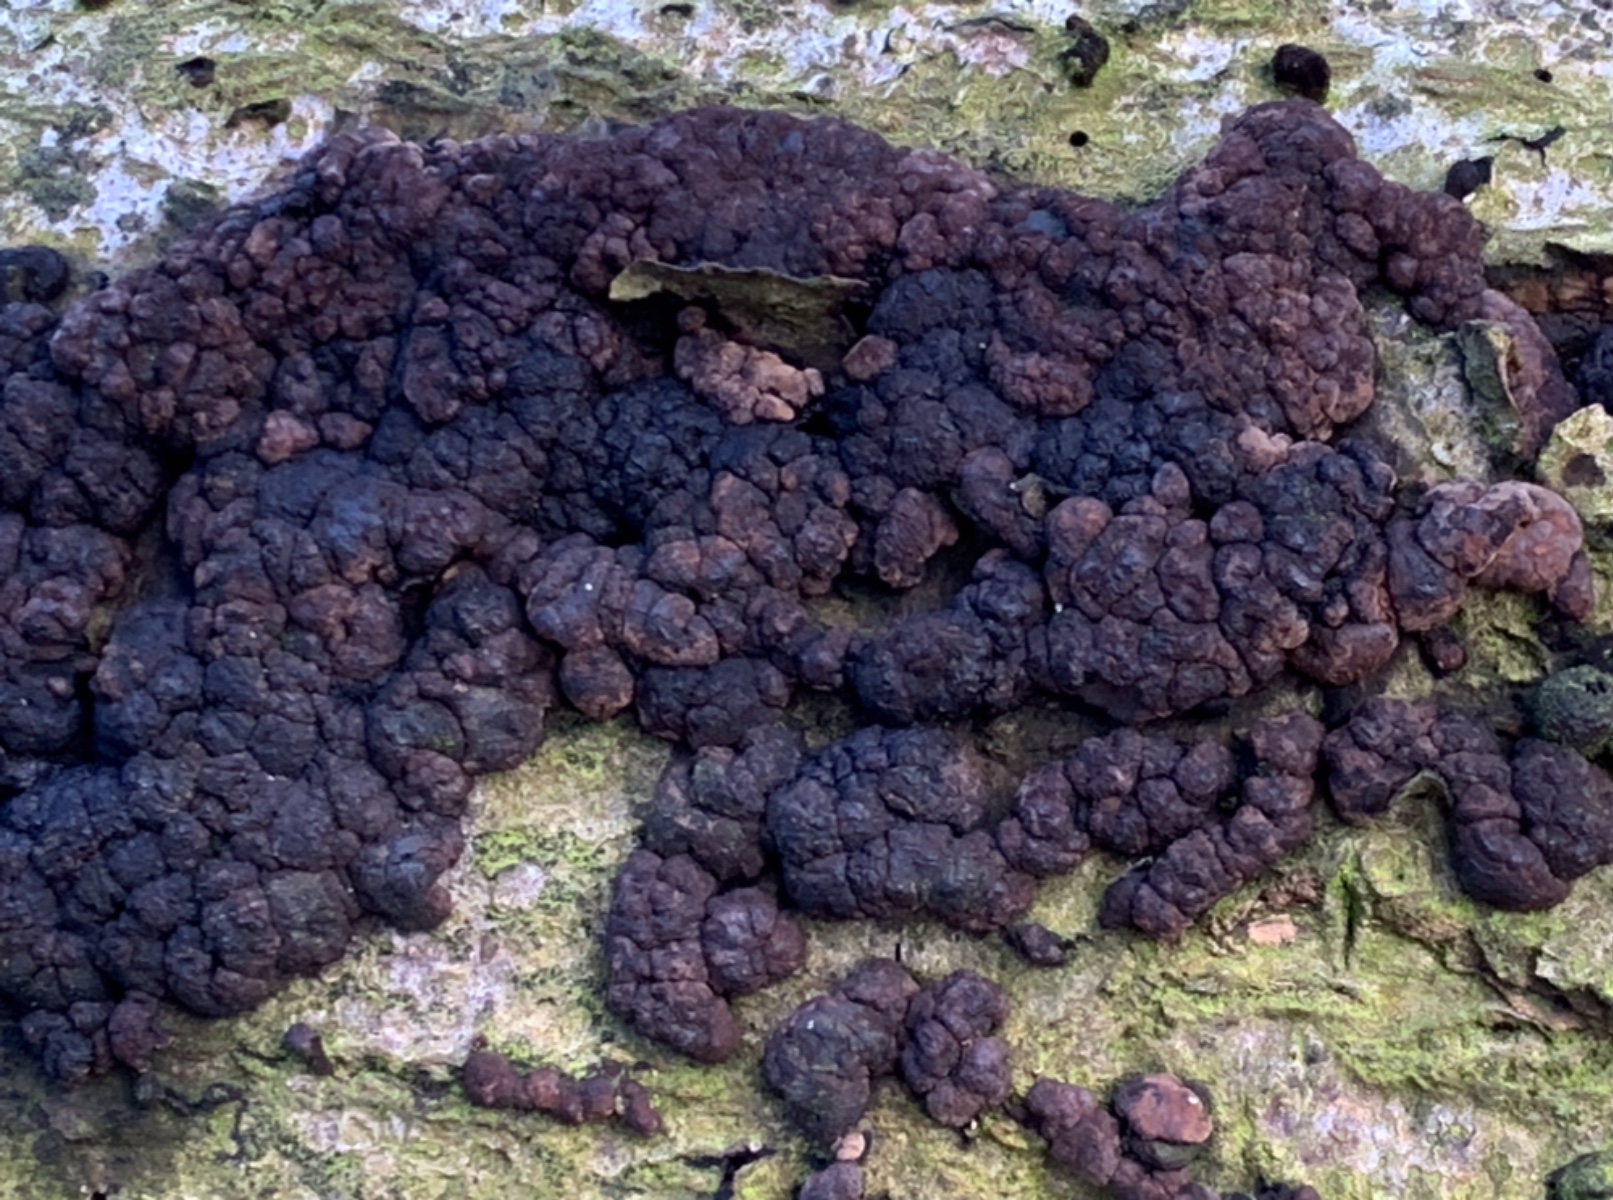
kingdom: Fungi
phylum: Ascomycota
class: Sordariomycetes
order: Xylariales
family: Hypoxylaceae
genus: Jackrogersella
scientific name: Jackrogersella cohaerens
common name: sammenflydende kulbær
